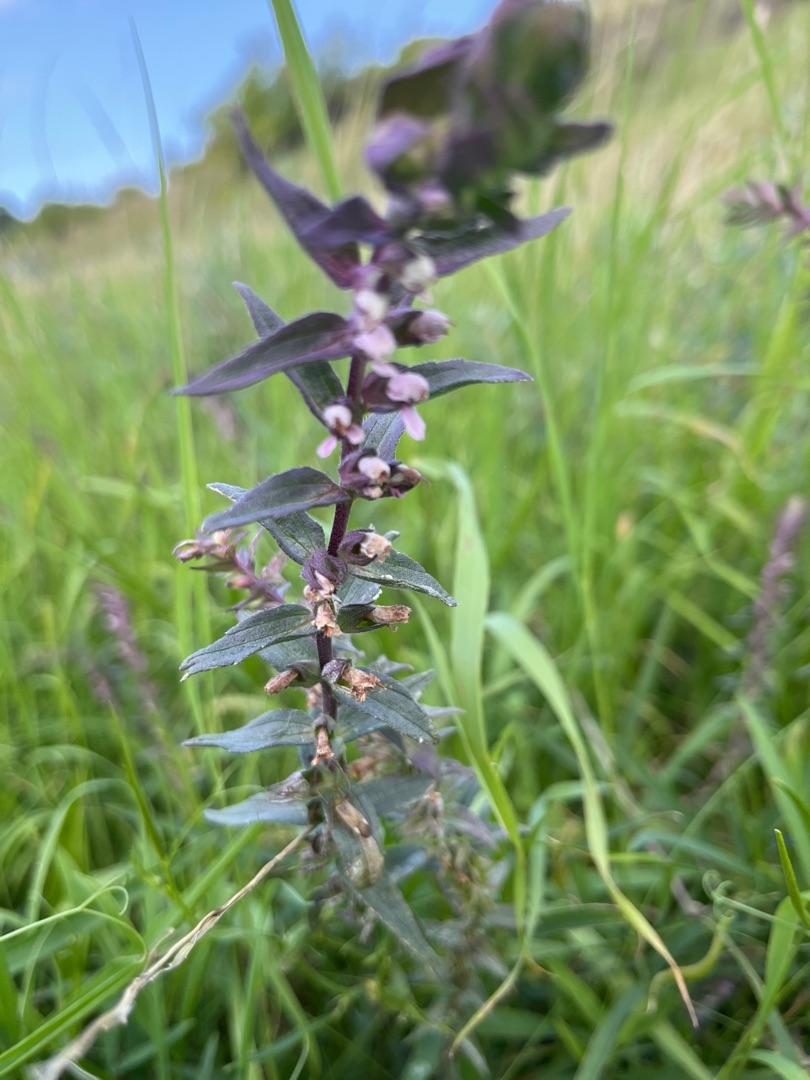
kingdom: Plantae
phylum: Tracheophyta
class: Magnoliopsida
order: Lamiales
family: Orobanchaceae
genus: Odontites
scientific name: Odontites vernus
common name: Mark-rødtop
